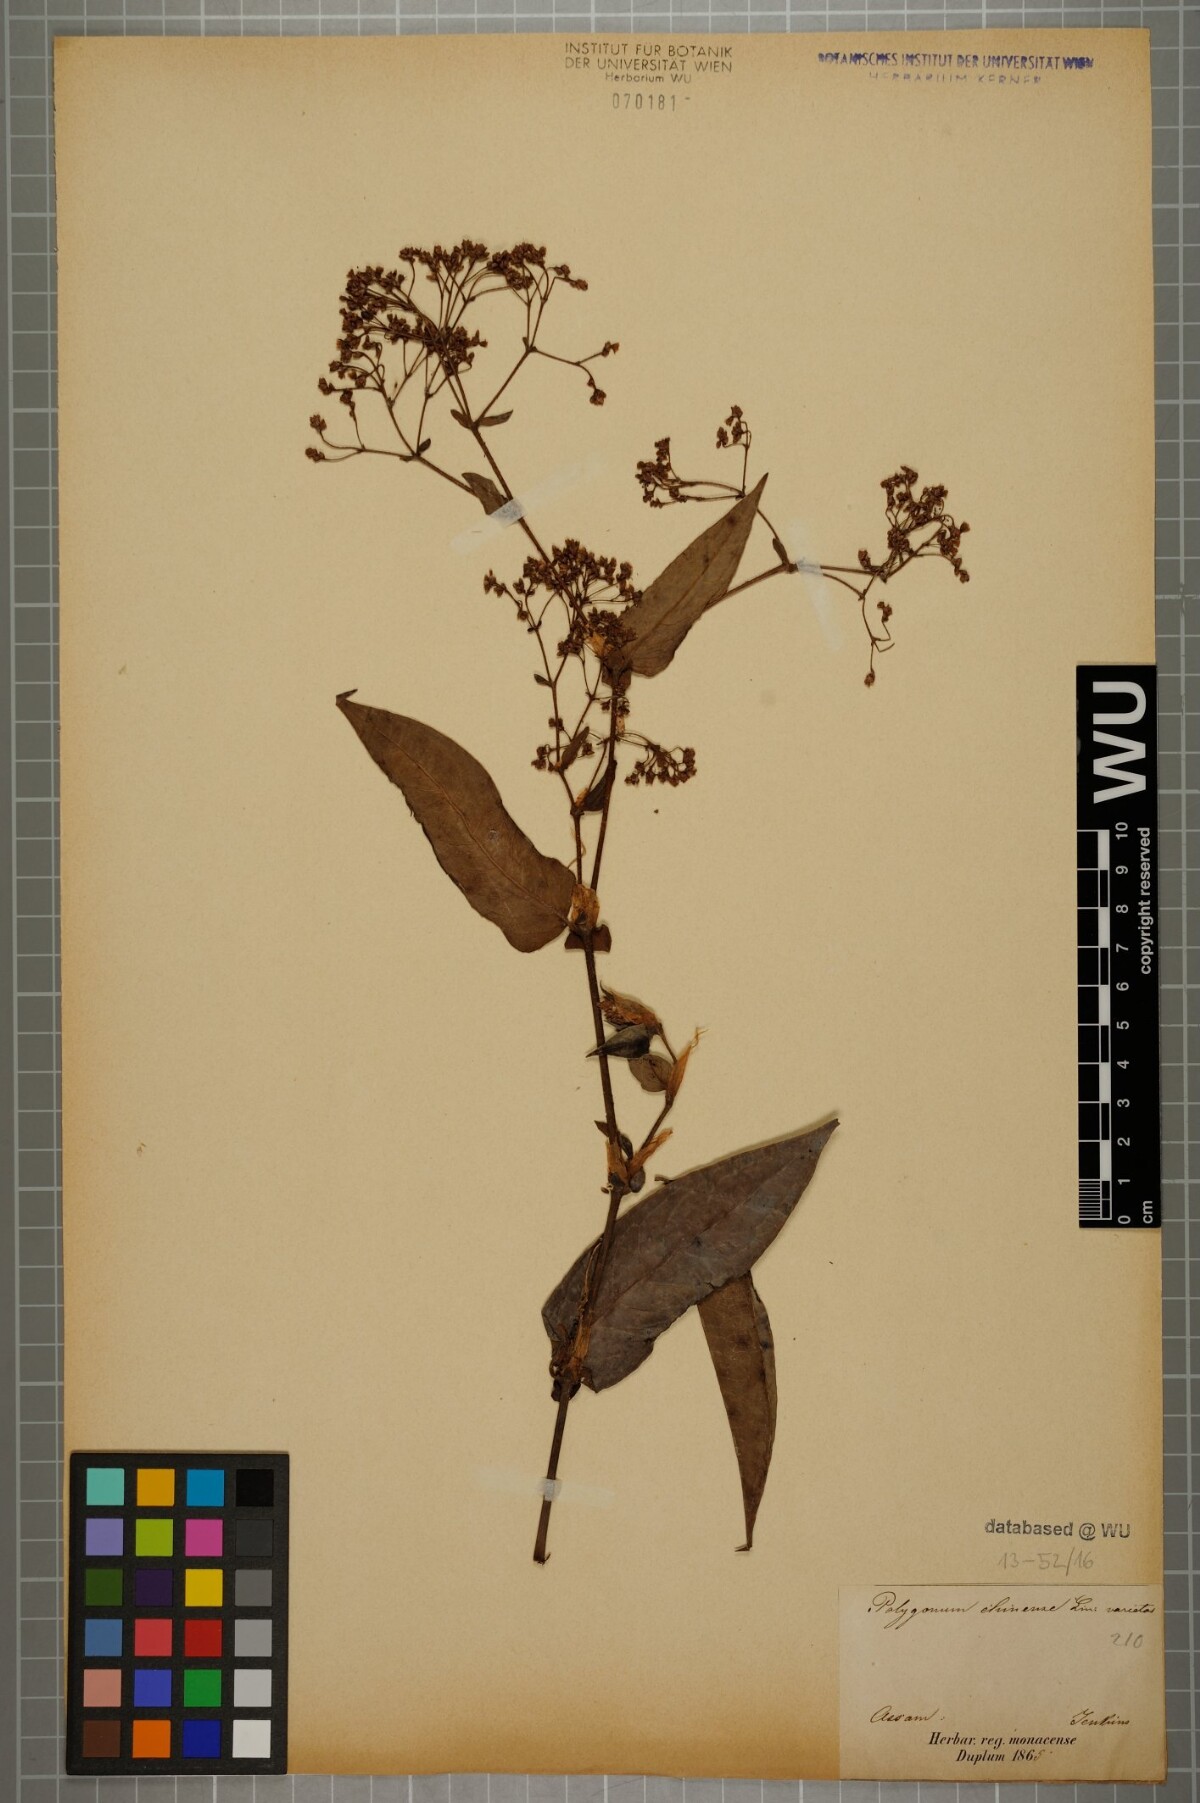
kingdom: Plantae
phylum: Tracheophyta
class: Magnoliopsida
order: Caryophyllales
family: Polygonaceae
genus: Persicaria
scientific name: Persicaria chinensis
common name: Chinese knotweed
